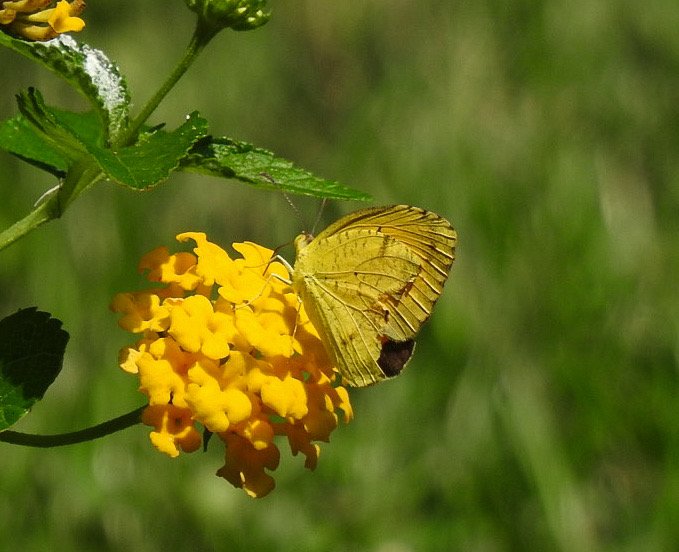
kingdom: Animalia
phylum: Arthropoda
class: Insecta
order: Lepidoptera
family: Pieridae
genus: Abaeis
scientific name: Abaeis nicippe
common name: Sleepy Orange
